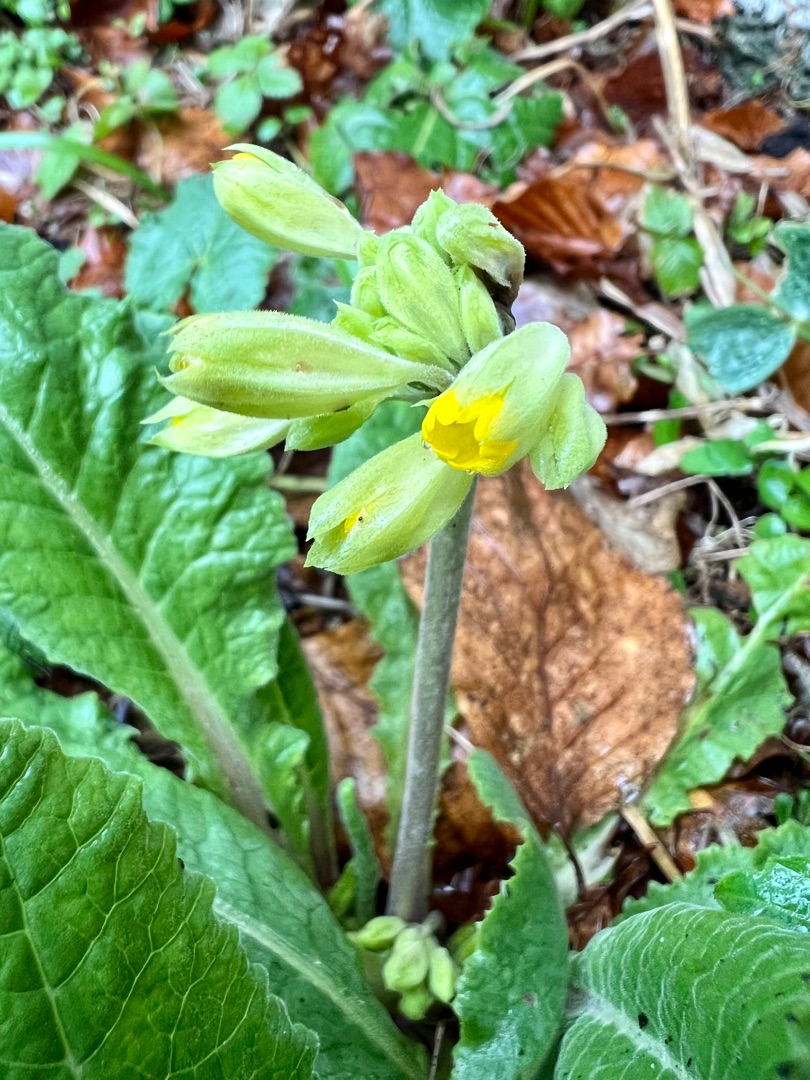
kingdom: Plantae
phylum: Tracheophyta
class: Magnoliopsida
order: Ericales
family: Primulaceae
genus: Primula
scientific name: Primula veris
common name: Hulkravet kodriver
